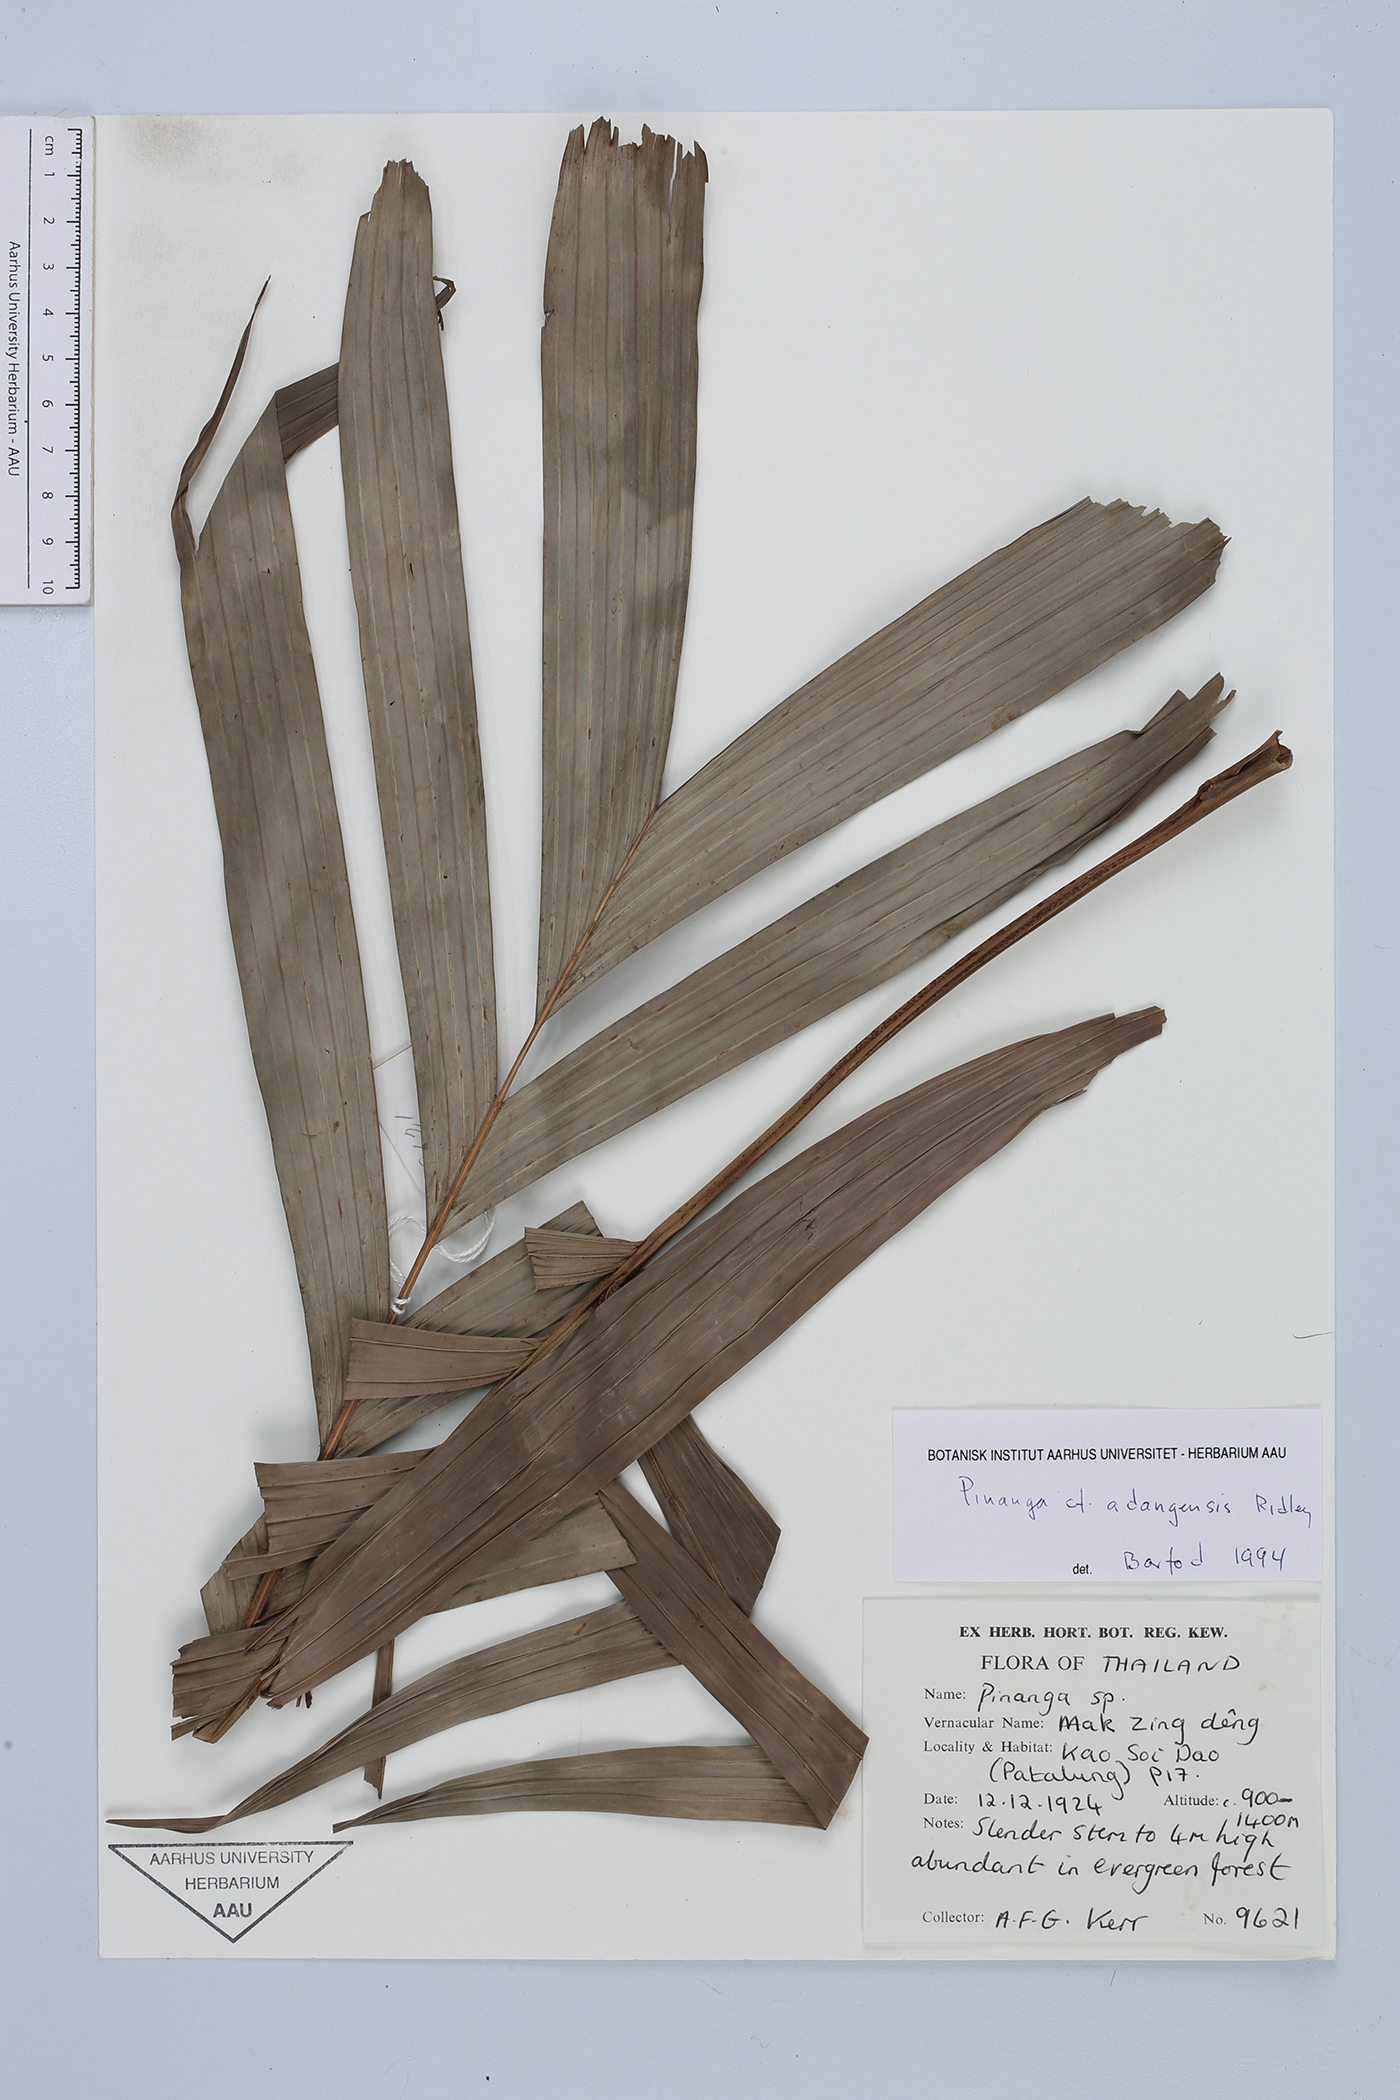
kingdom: Plantae
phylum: Tracheophyta
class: Liliopsida
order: Arecales
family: Arecaceae
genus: Pinanga
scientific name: Pinanga adangensis
